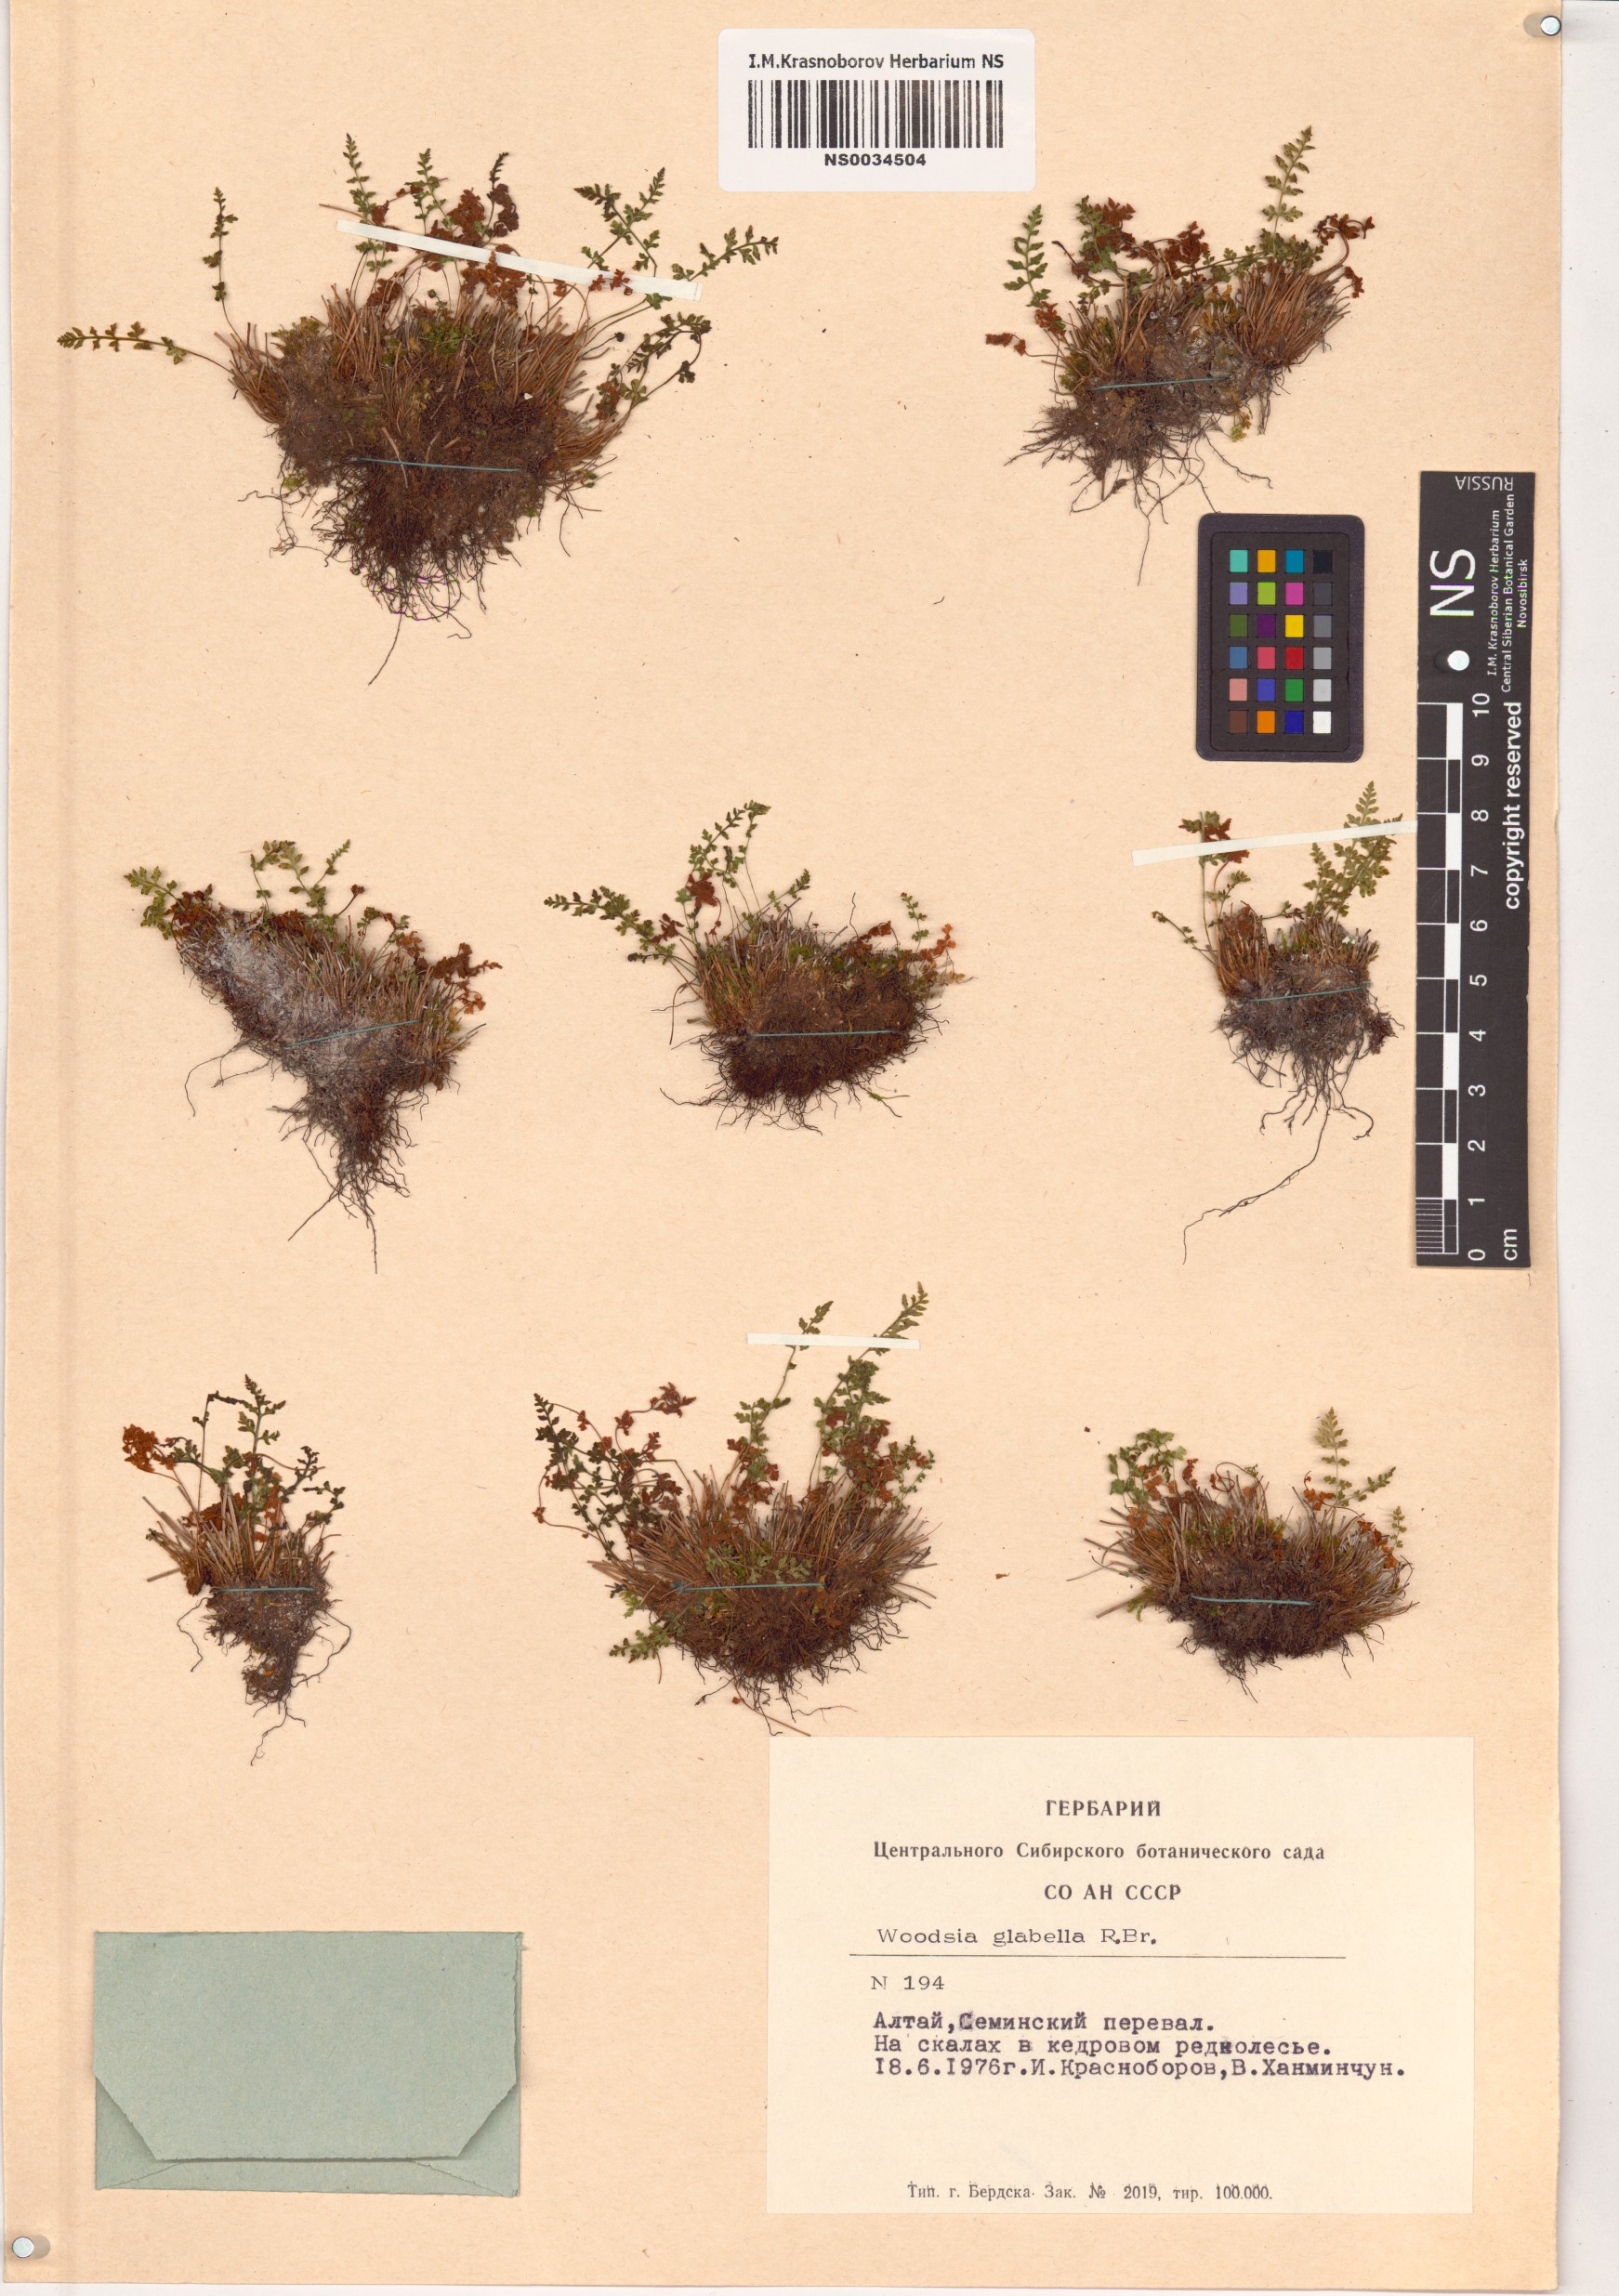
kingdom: Plantae
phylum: Tracheophyta
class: Polypodiopsida
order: Polypodiales
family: Woodsiaceae
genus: Woodsia
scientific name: Woodsia glabella
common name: Smooth woodsia
